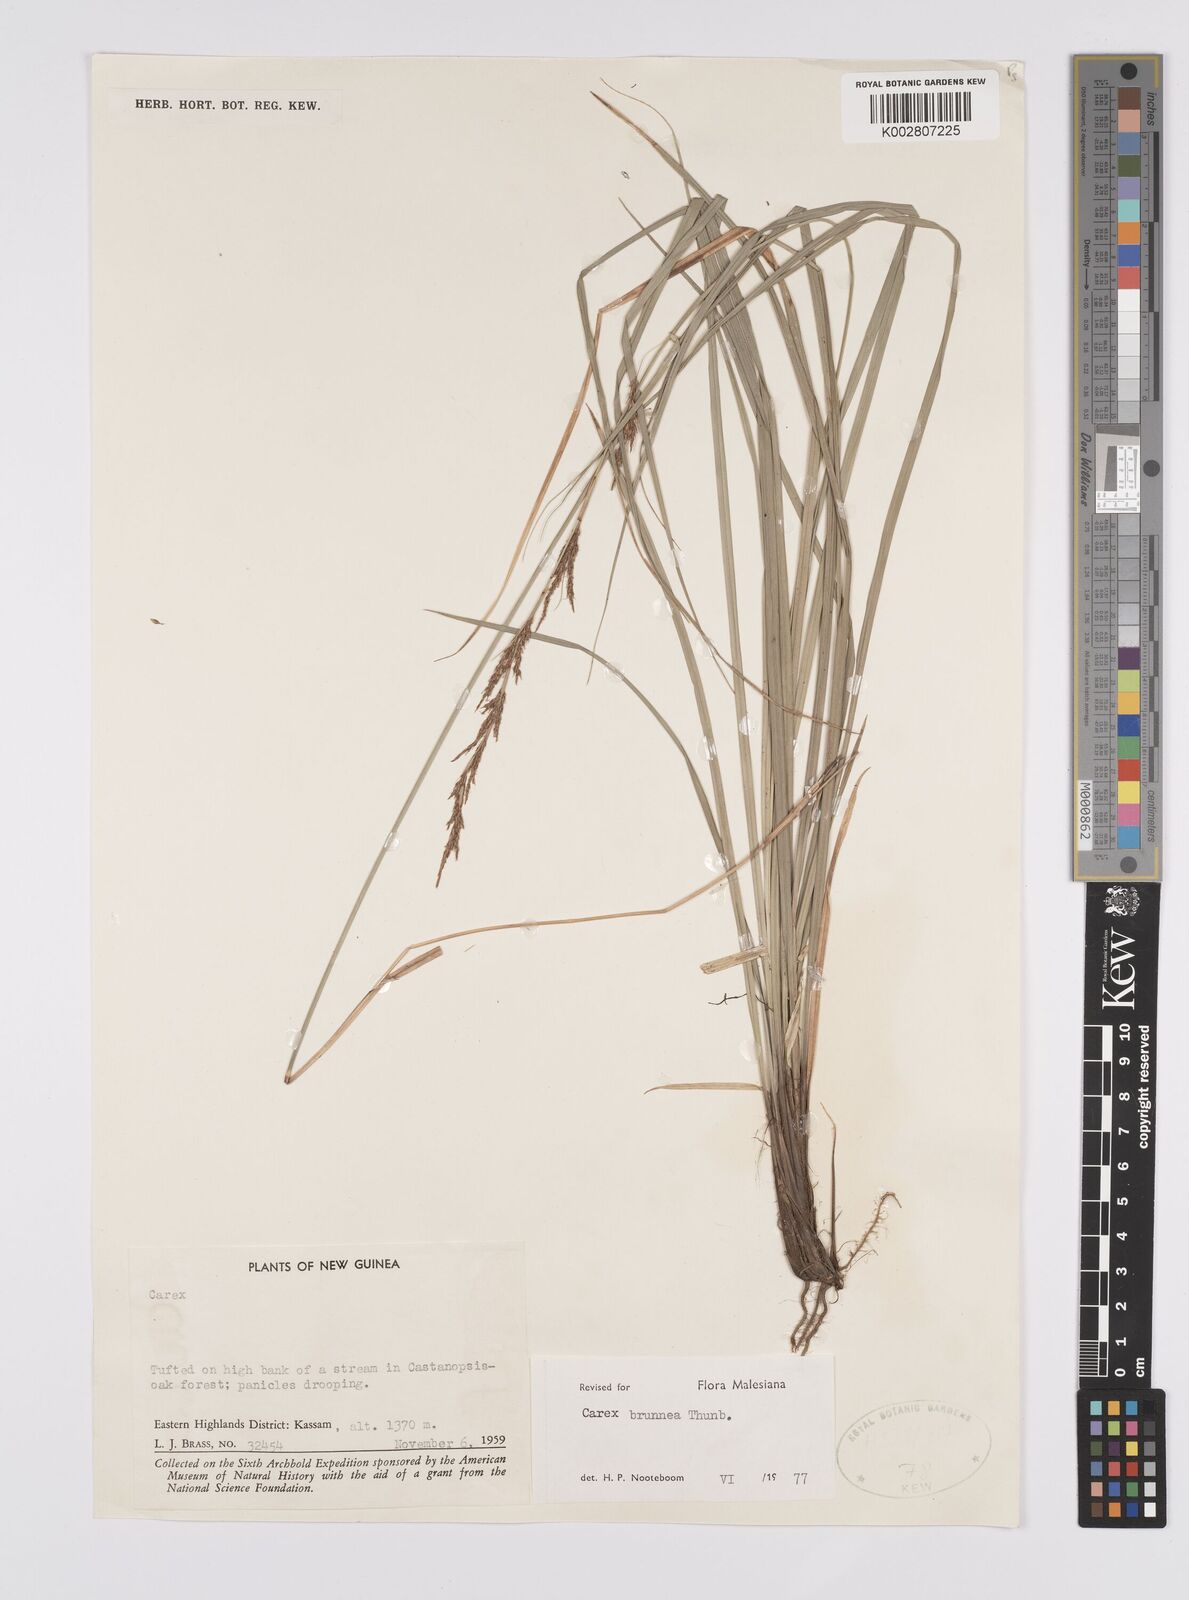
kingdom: Plantae
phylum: Tracheophyta
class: Liliopsida
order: Poales
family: Cyperaceae
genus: Carex
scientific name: Carex brunnea
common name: Greater brown sedge
